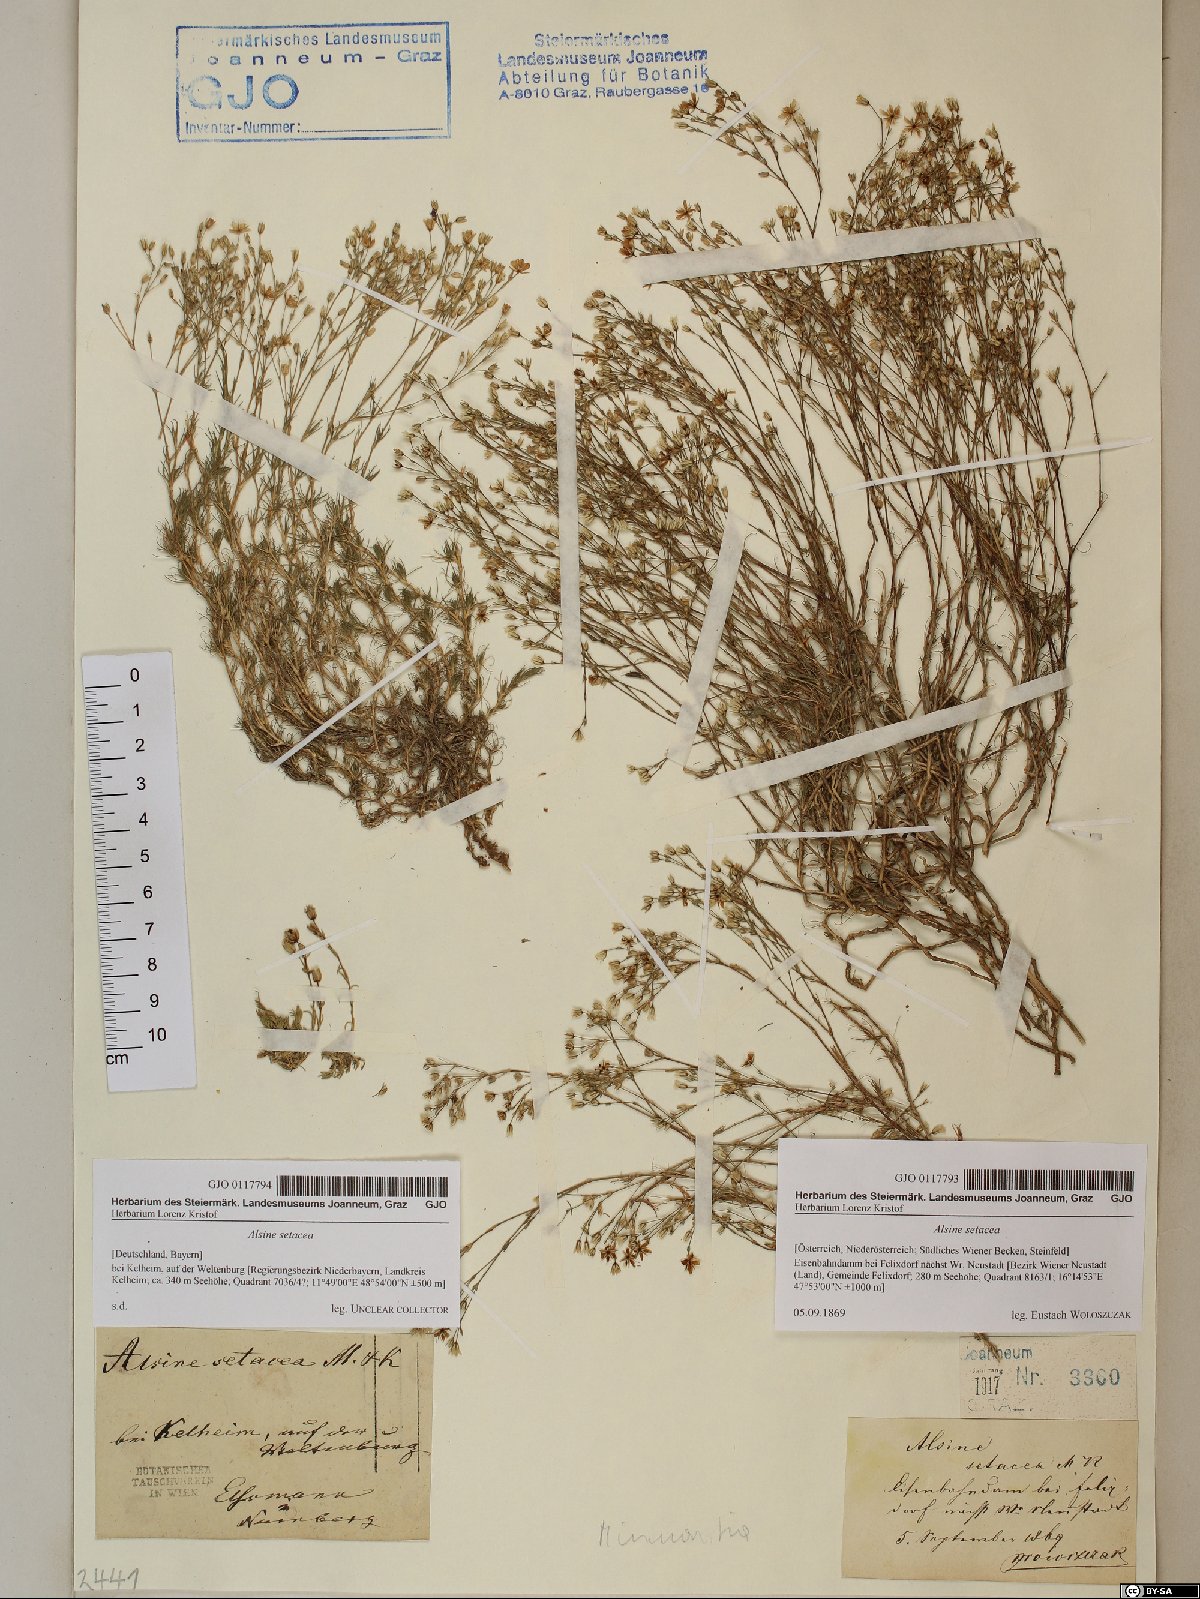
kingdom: Plantae
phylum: Tracheophyta
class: Magnoliopsida
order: Caryophyllales
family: Caryophyllaceae
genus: Minuartia
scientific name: Minuartia setacea
